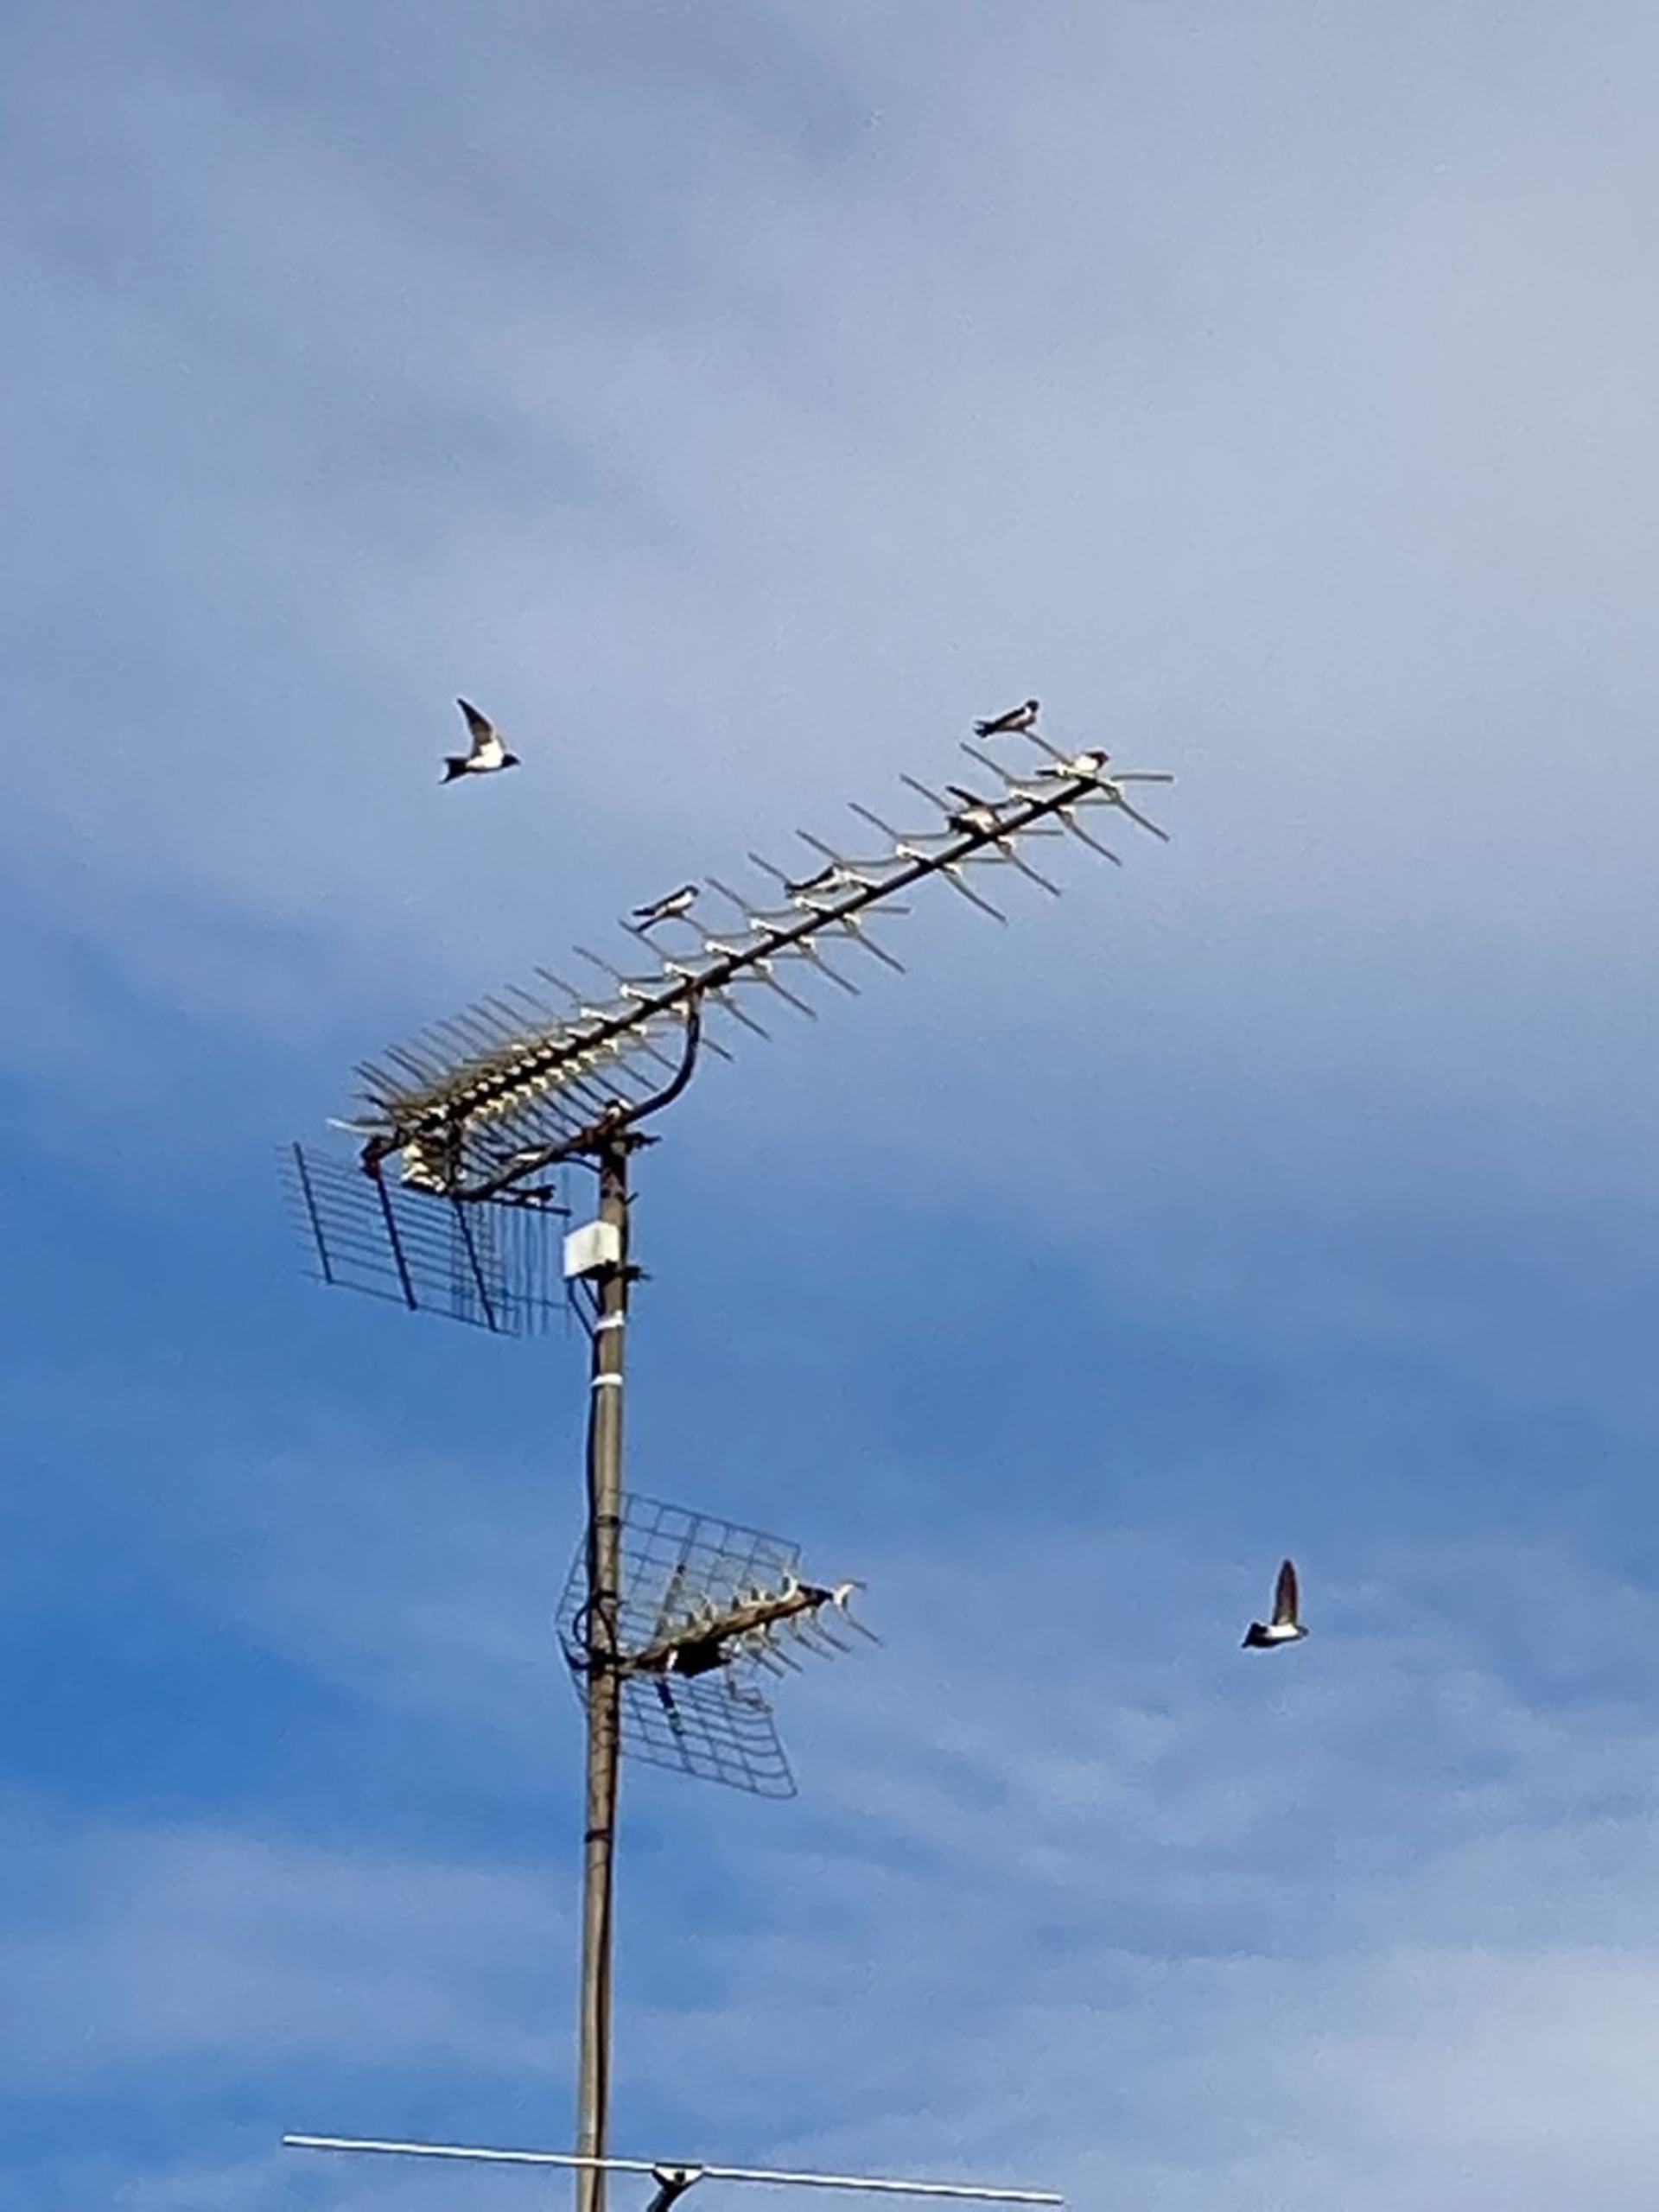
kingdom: Animalia
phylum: Chordata
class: Aves
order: Passeriformes
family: Hirundinidae
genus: Delichon
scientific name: Delichon urbicum
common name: Bysvale
